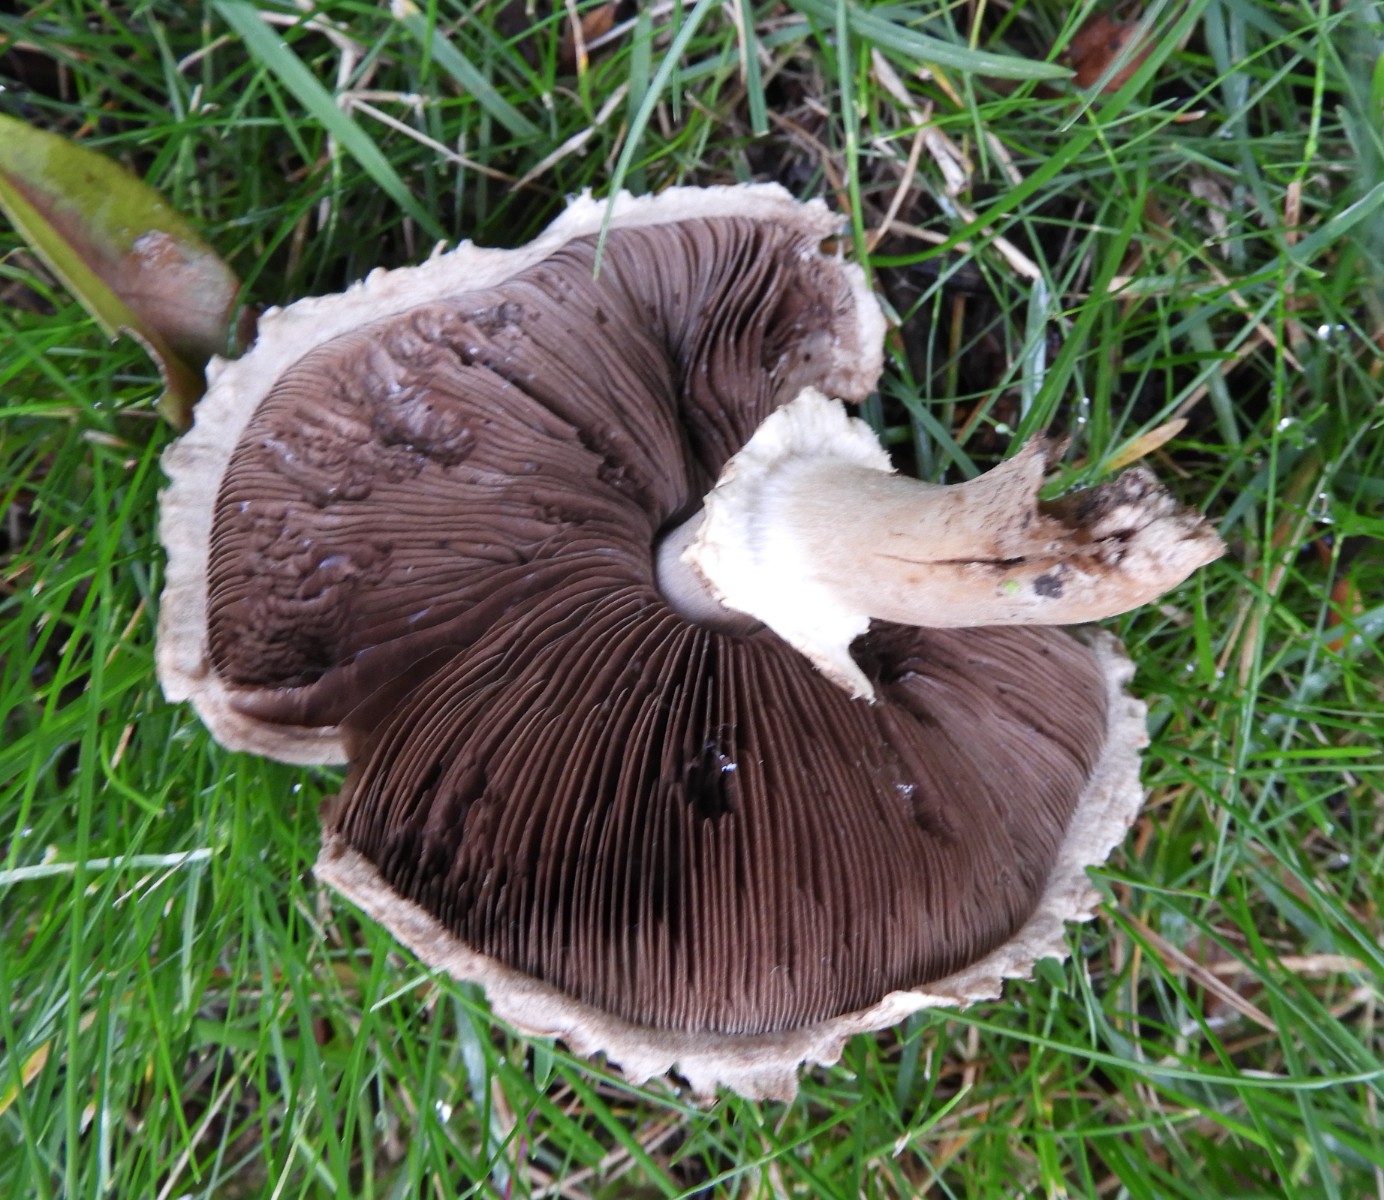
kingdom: Fungi
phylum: Basidiomycota
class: Agaricomycetes
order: Agaricales
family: Agaricaceae
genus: Agaricus
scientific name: Agaricus impudicus
